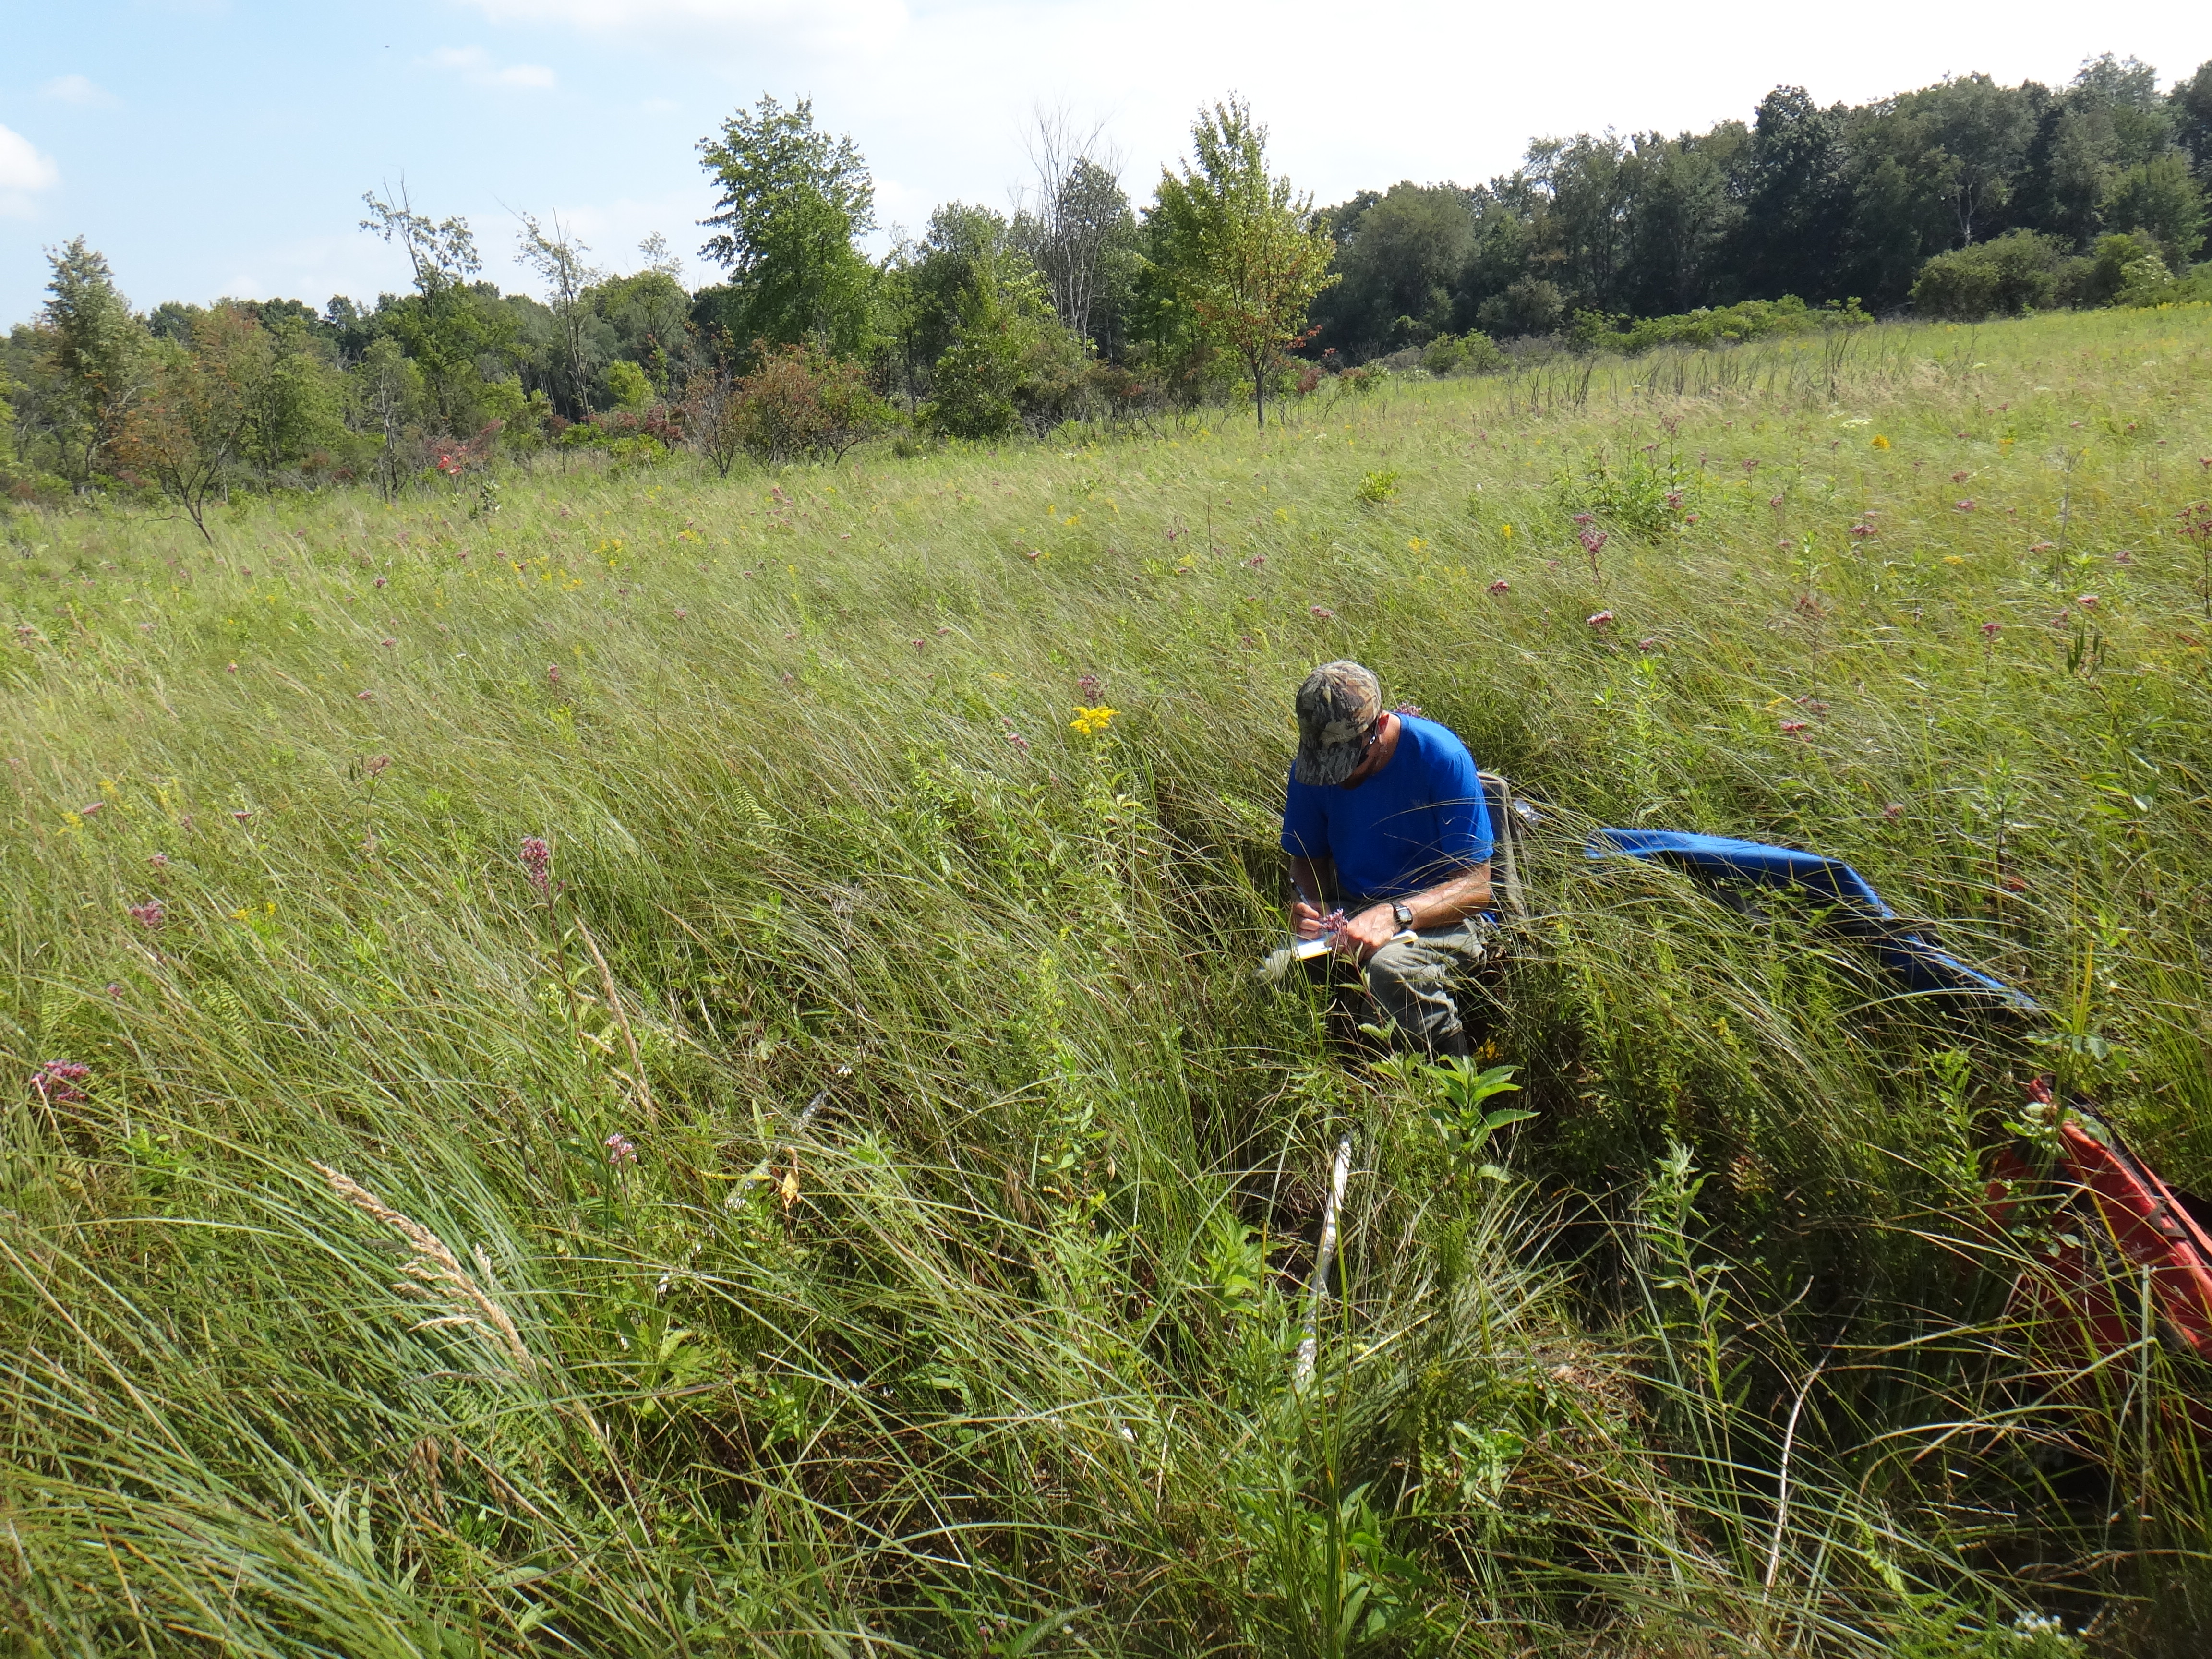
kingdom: Plantae
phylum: Tracheophyta
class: Magnoliopsida
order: Asterales
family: Asteraceae
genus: Doellingeria
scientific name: Doellingeria umbellata
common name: Flat-top white aster
